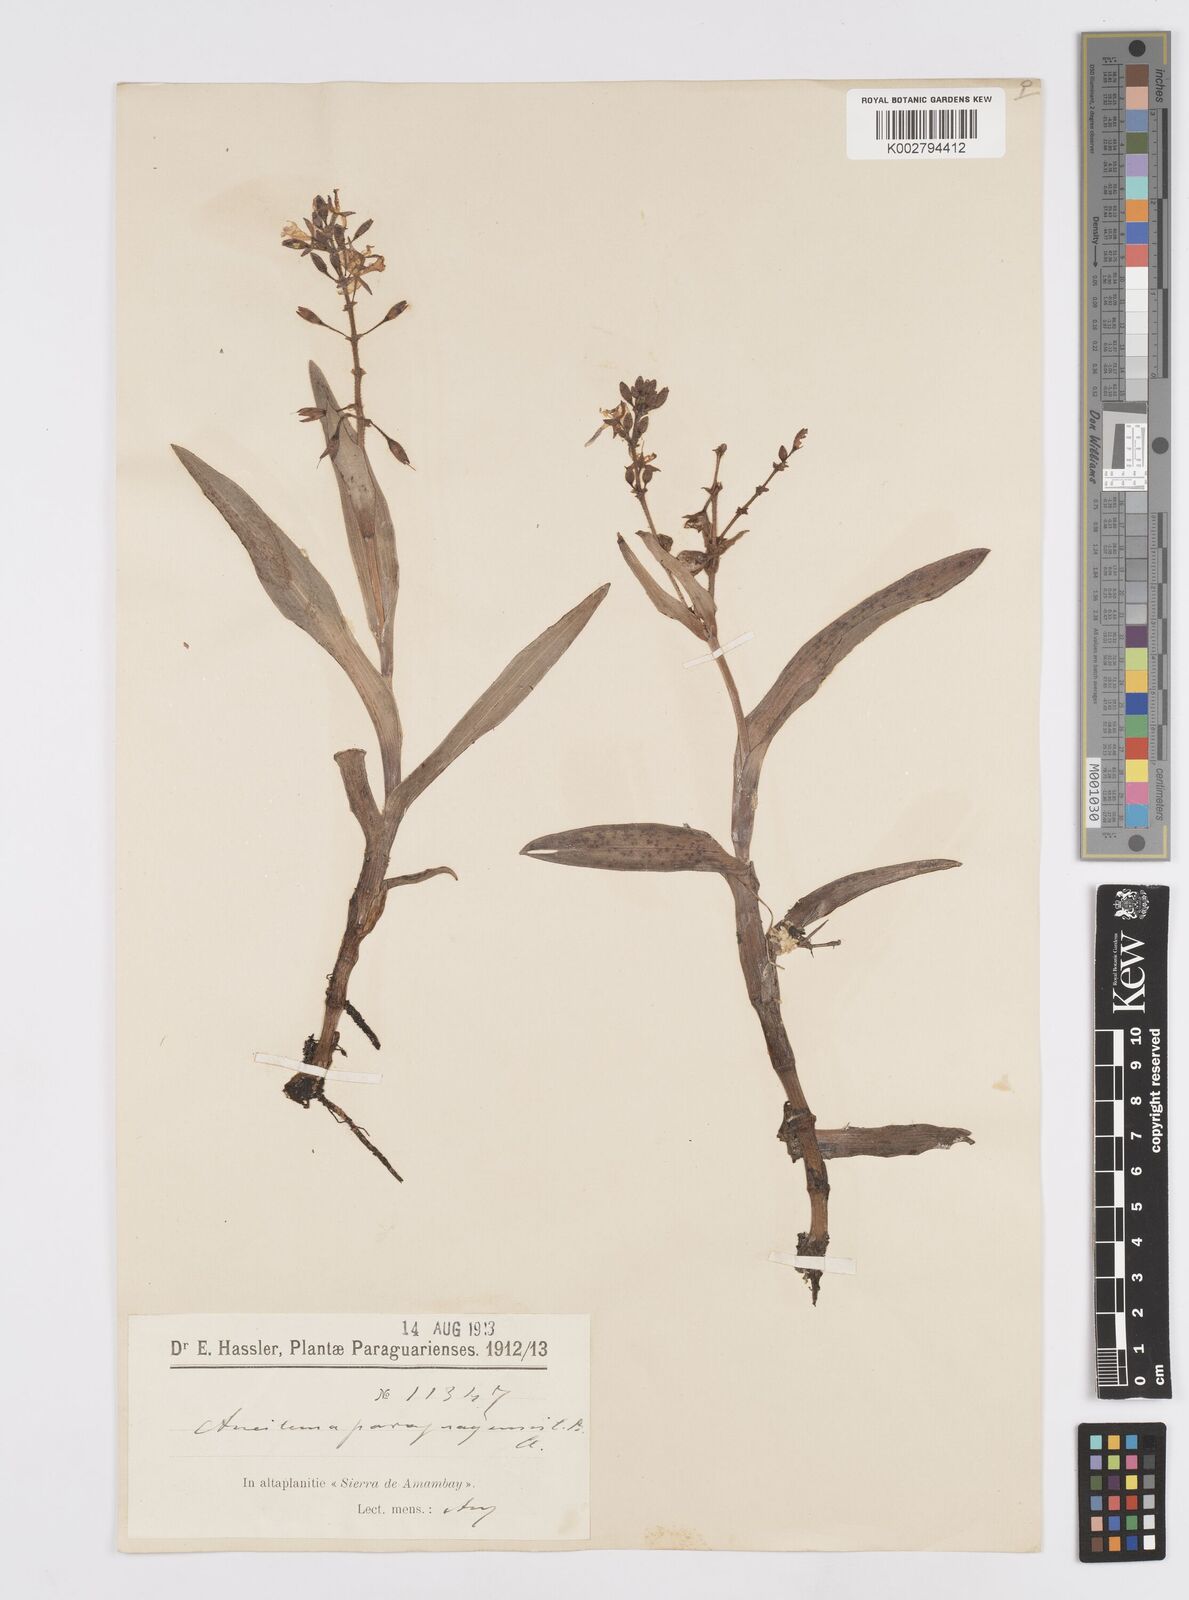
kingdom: Plantae
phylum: Tracheophyta
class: Liliopsida
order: Commelinales
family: Commelinaceae
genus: Murdannia
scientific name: Murdannia paraguayensis
